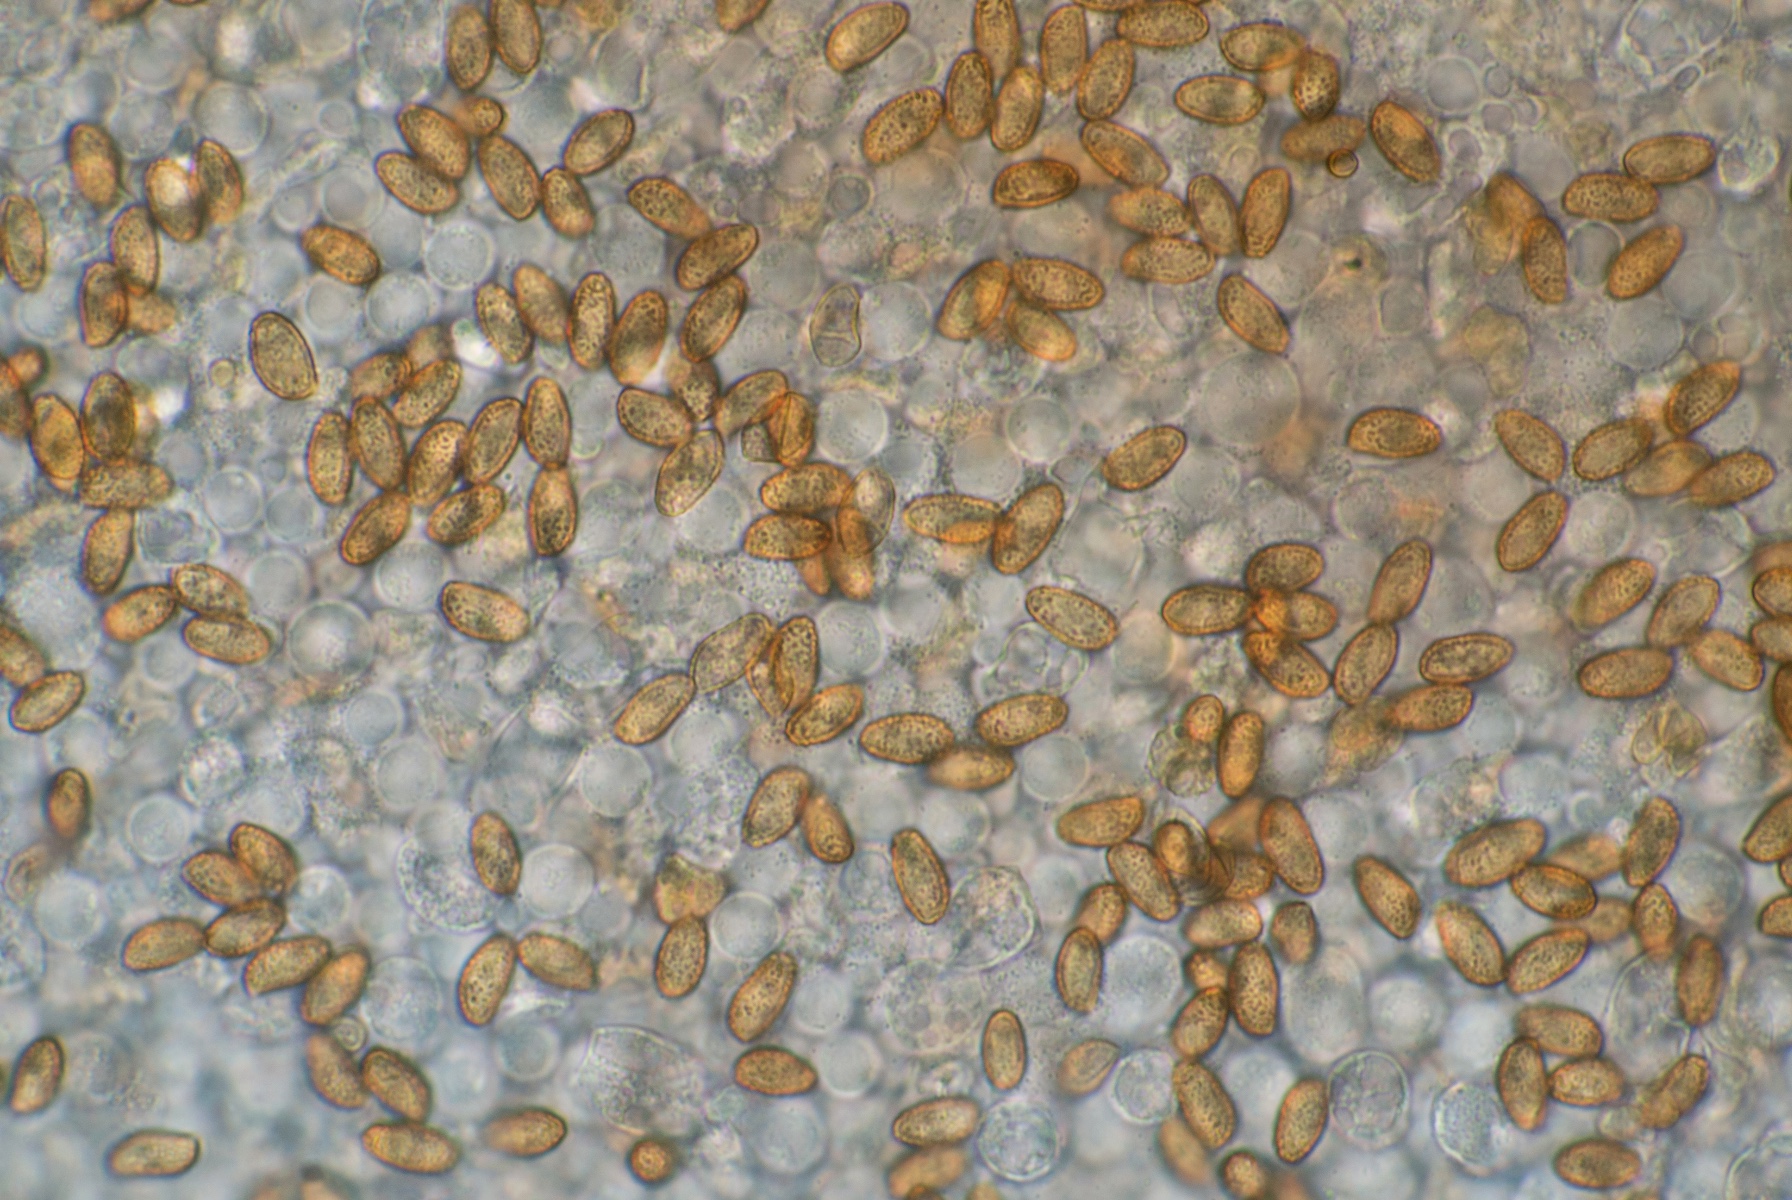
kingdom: Fungi
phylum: Basidiomycota
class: Agaricomycetes
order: Agaricales
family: Cortinariaceae
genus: Cortinarius
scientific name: Cortinarius ammophiloides
